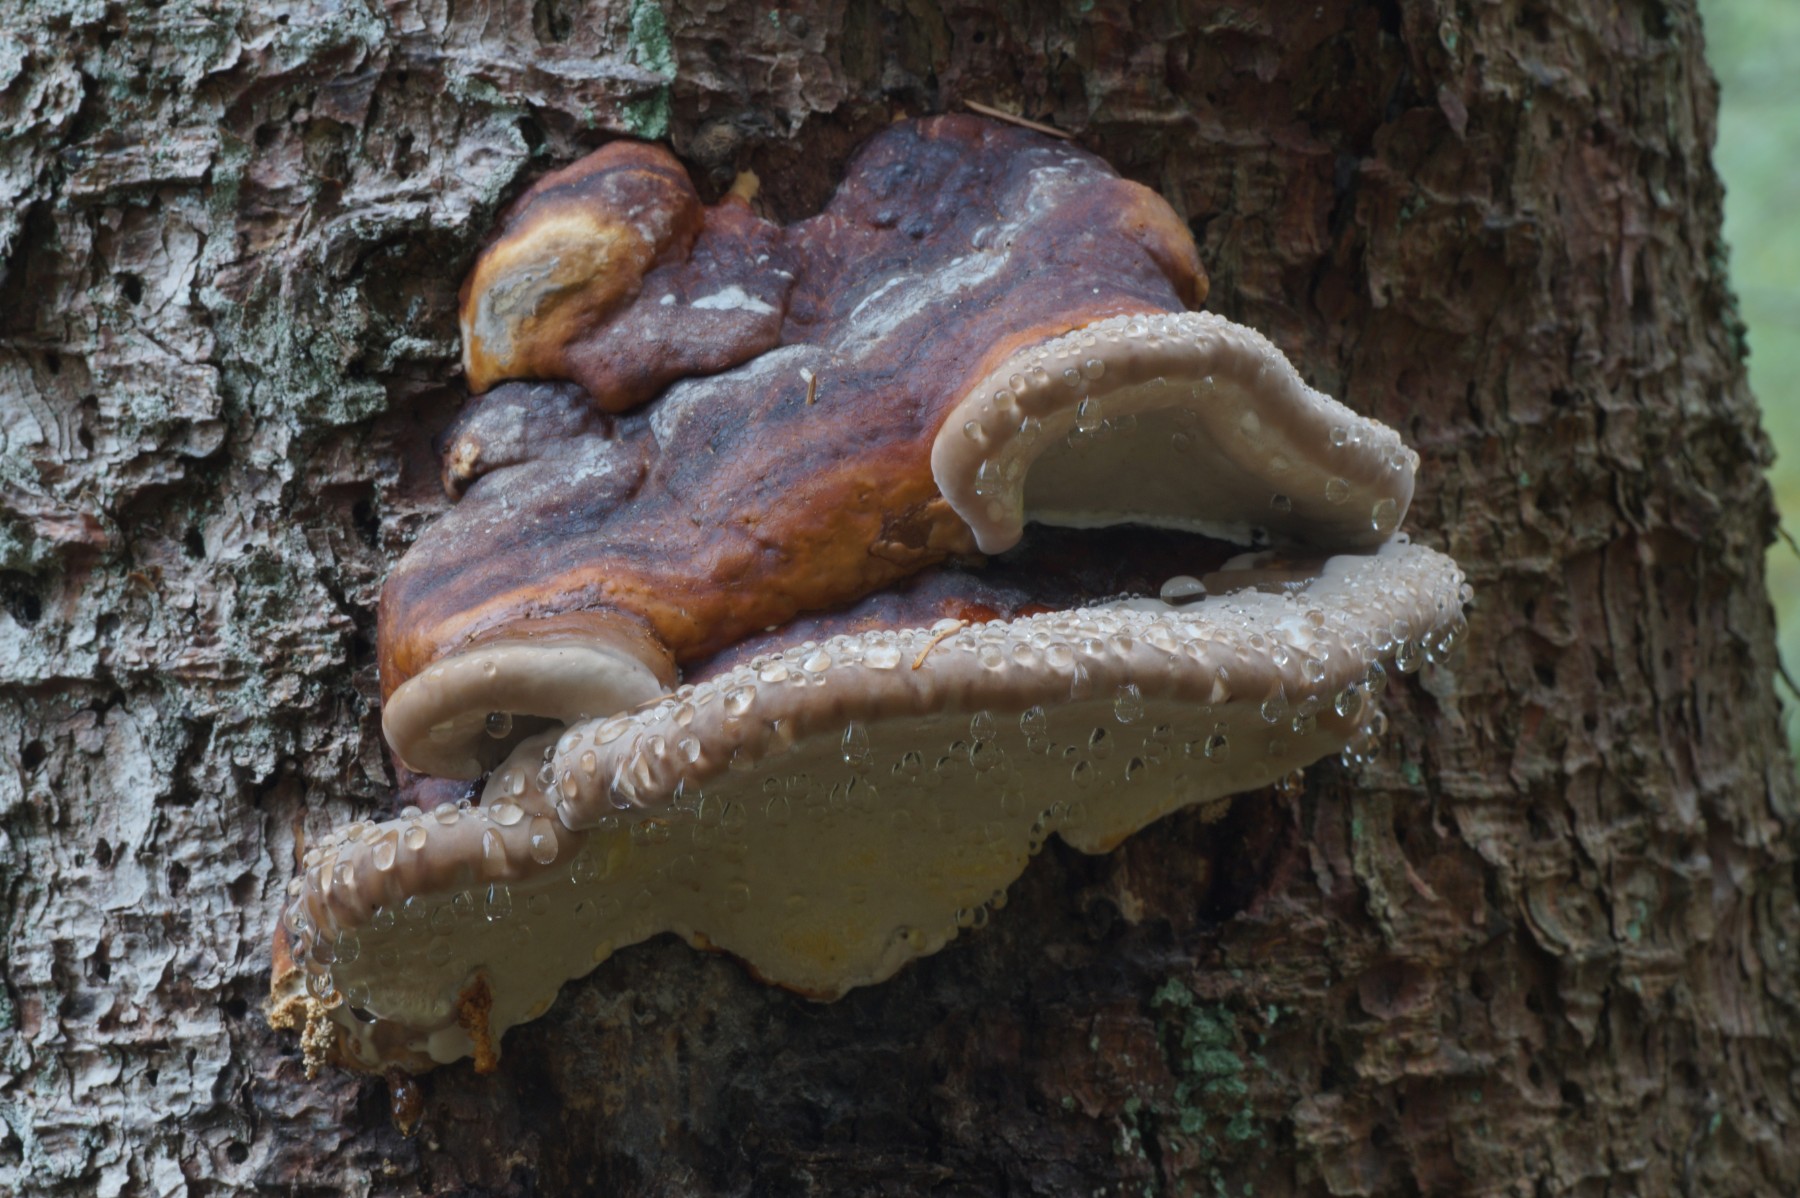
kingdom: Fungi
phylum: Basidiomycota
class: Agaricomycetes
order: Polyporales
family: Fomitopsidaceae
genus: Fomitopsis
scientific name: Fomitopsis pinicola
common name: randbæltet hovporesvamp
